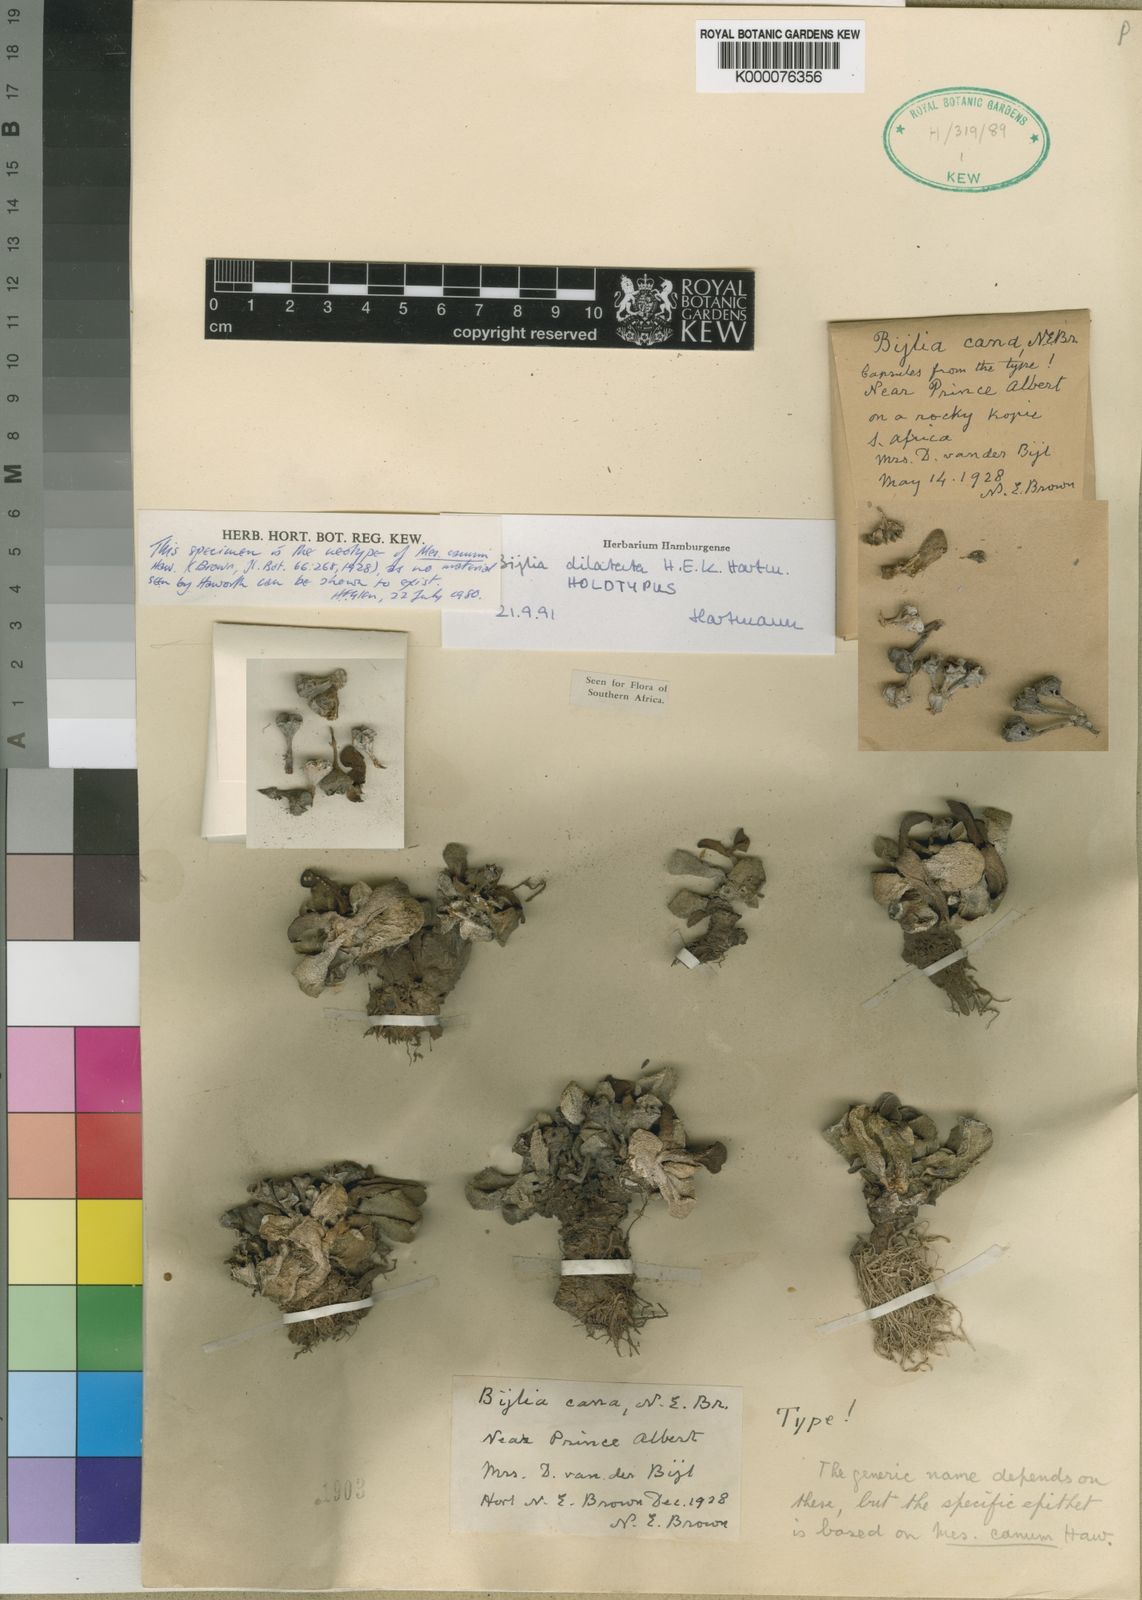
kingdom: Plantae
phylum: Tracheophyta
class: Magnoliopsida
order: Caryophyllales
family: Aizoaceae
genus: Pleiospilos
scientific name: Pleiospilos compactus
